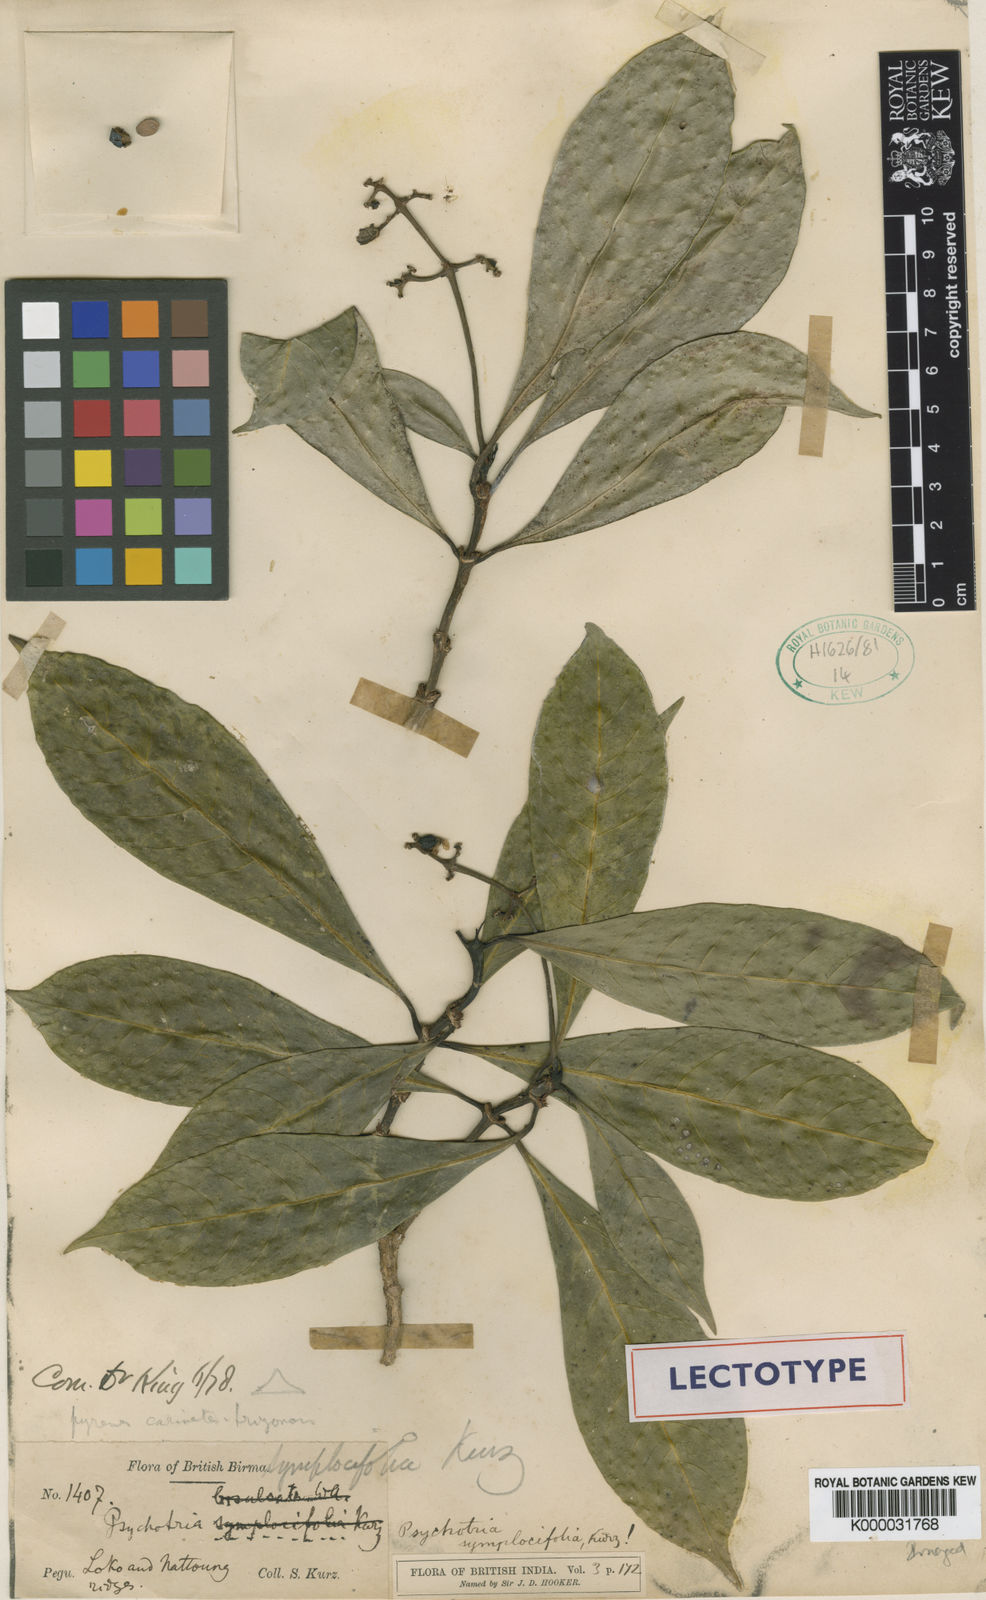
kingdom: Plantae
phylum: Tracheophyta
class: Magnoliopsida
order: Gentianales
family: Rubiaceae
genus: Psychotria
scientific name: Psychotria symplocifolia
